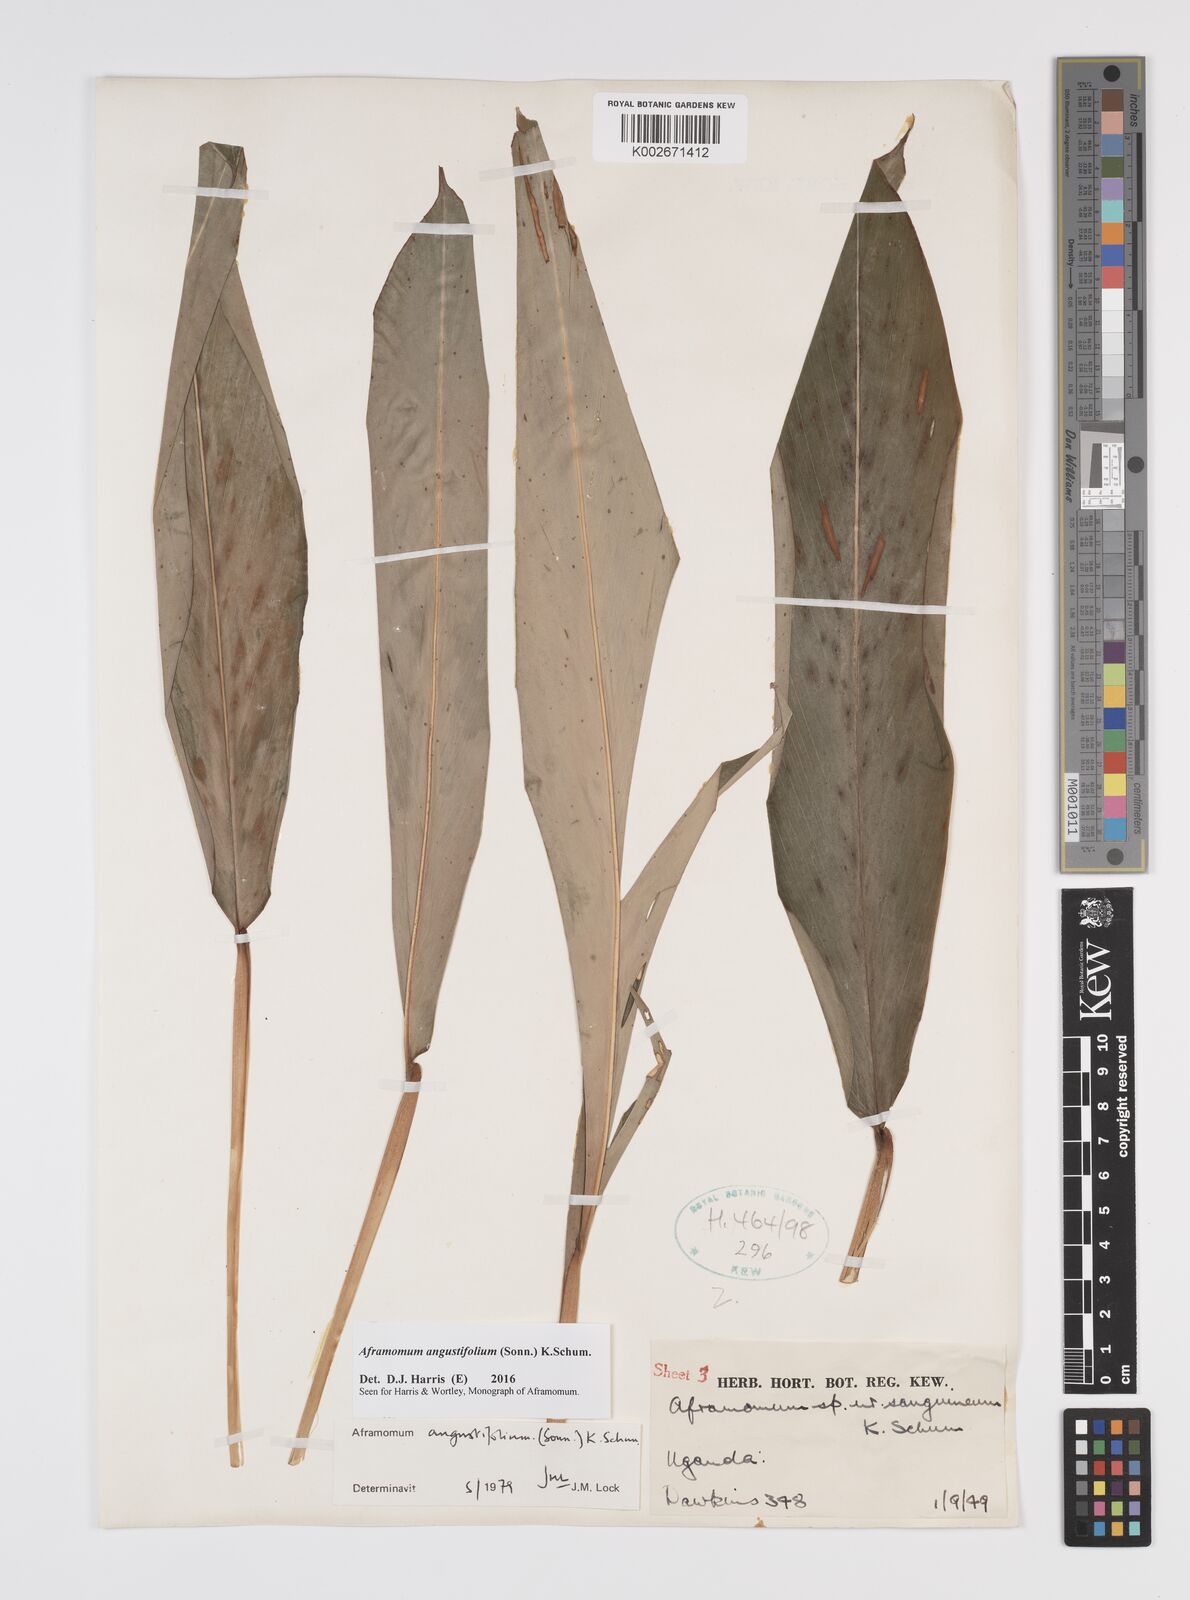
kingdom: Plantae
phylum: Tracheophyta
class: Liliopsida
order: Zingiberales
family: Zingiberaceae
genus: Aframomum
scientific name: Aframomum angustifolium
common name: Guinea grains
